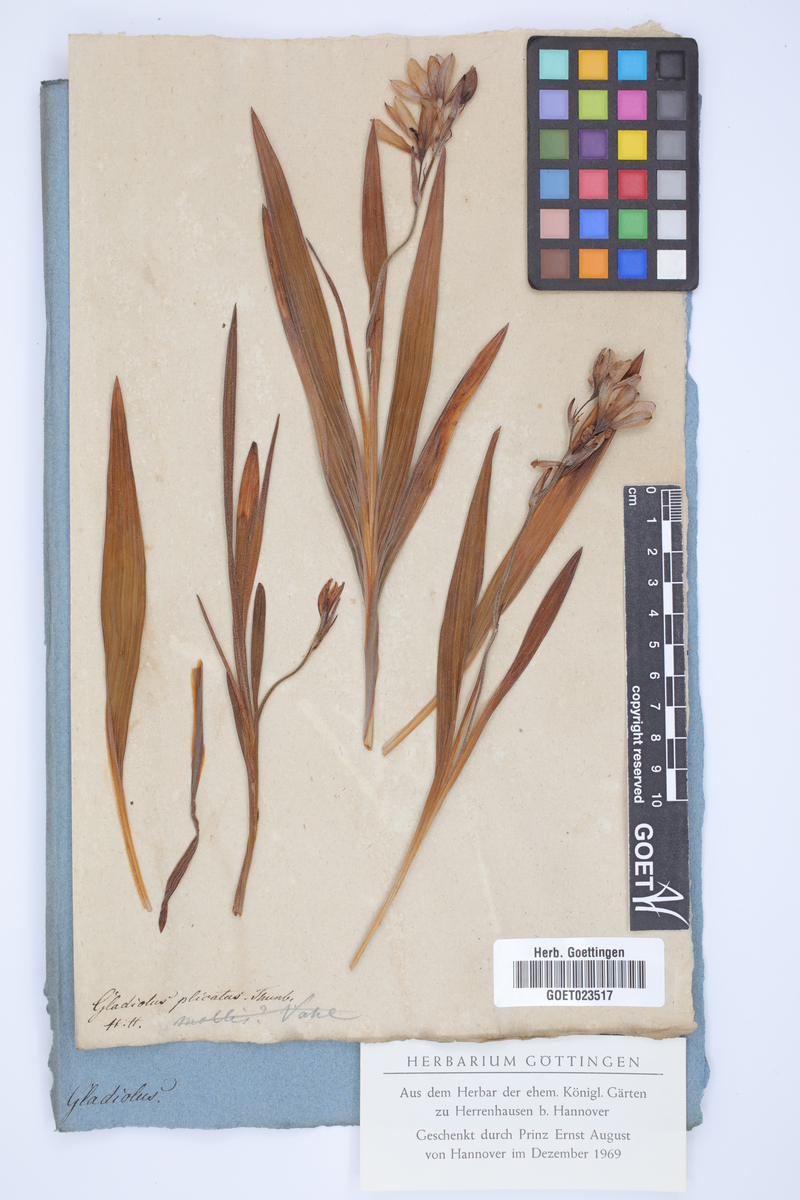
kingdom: Plantae
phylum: Tracheophyta
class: Liliopsida
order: Asparagales
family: Iridaceae
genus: Babiana
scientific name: Babiana fragrans
